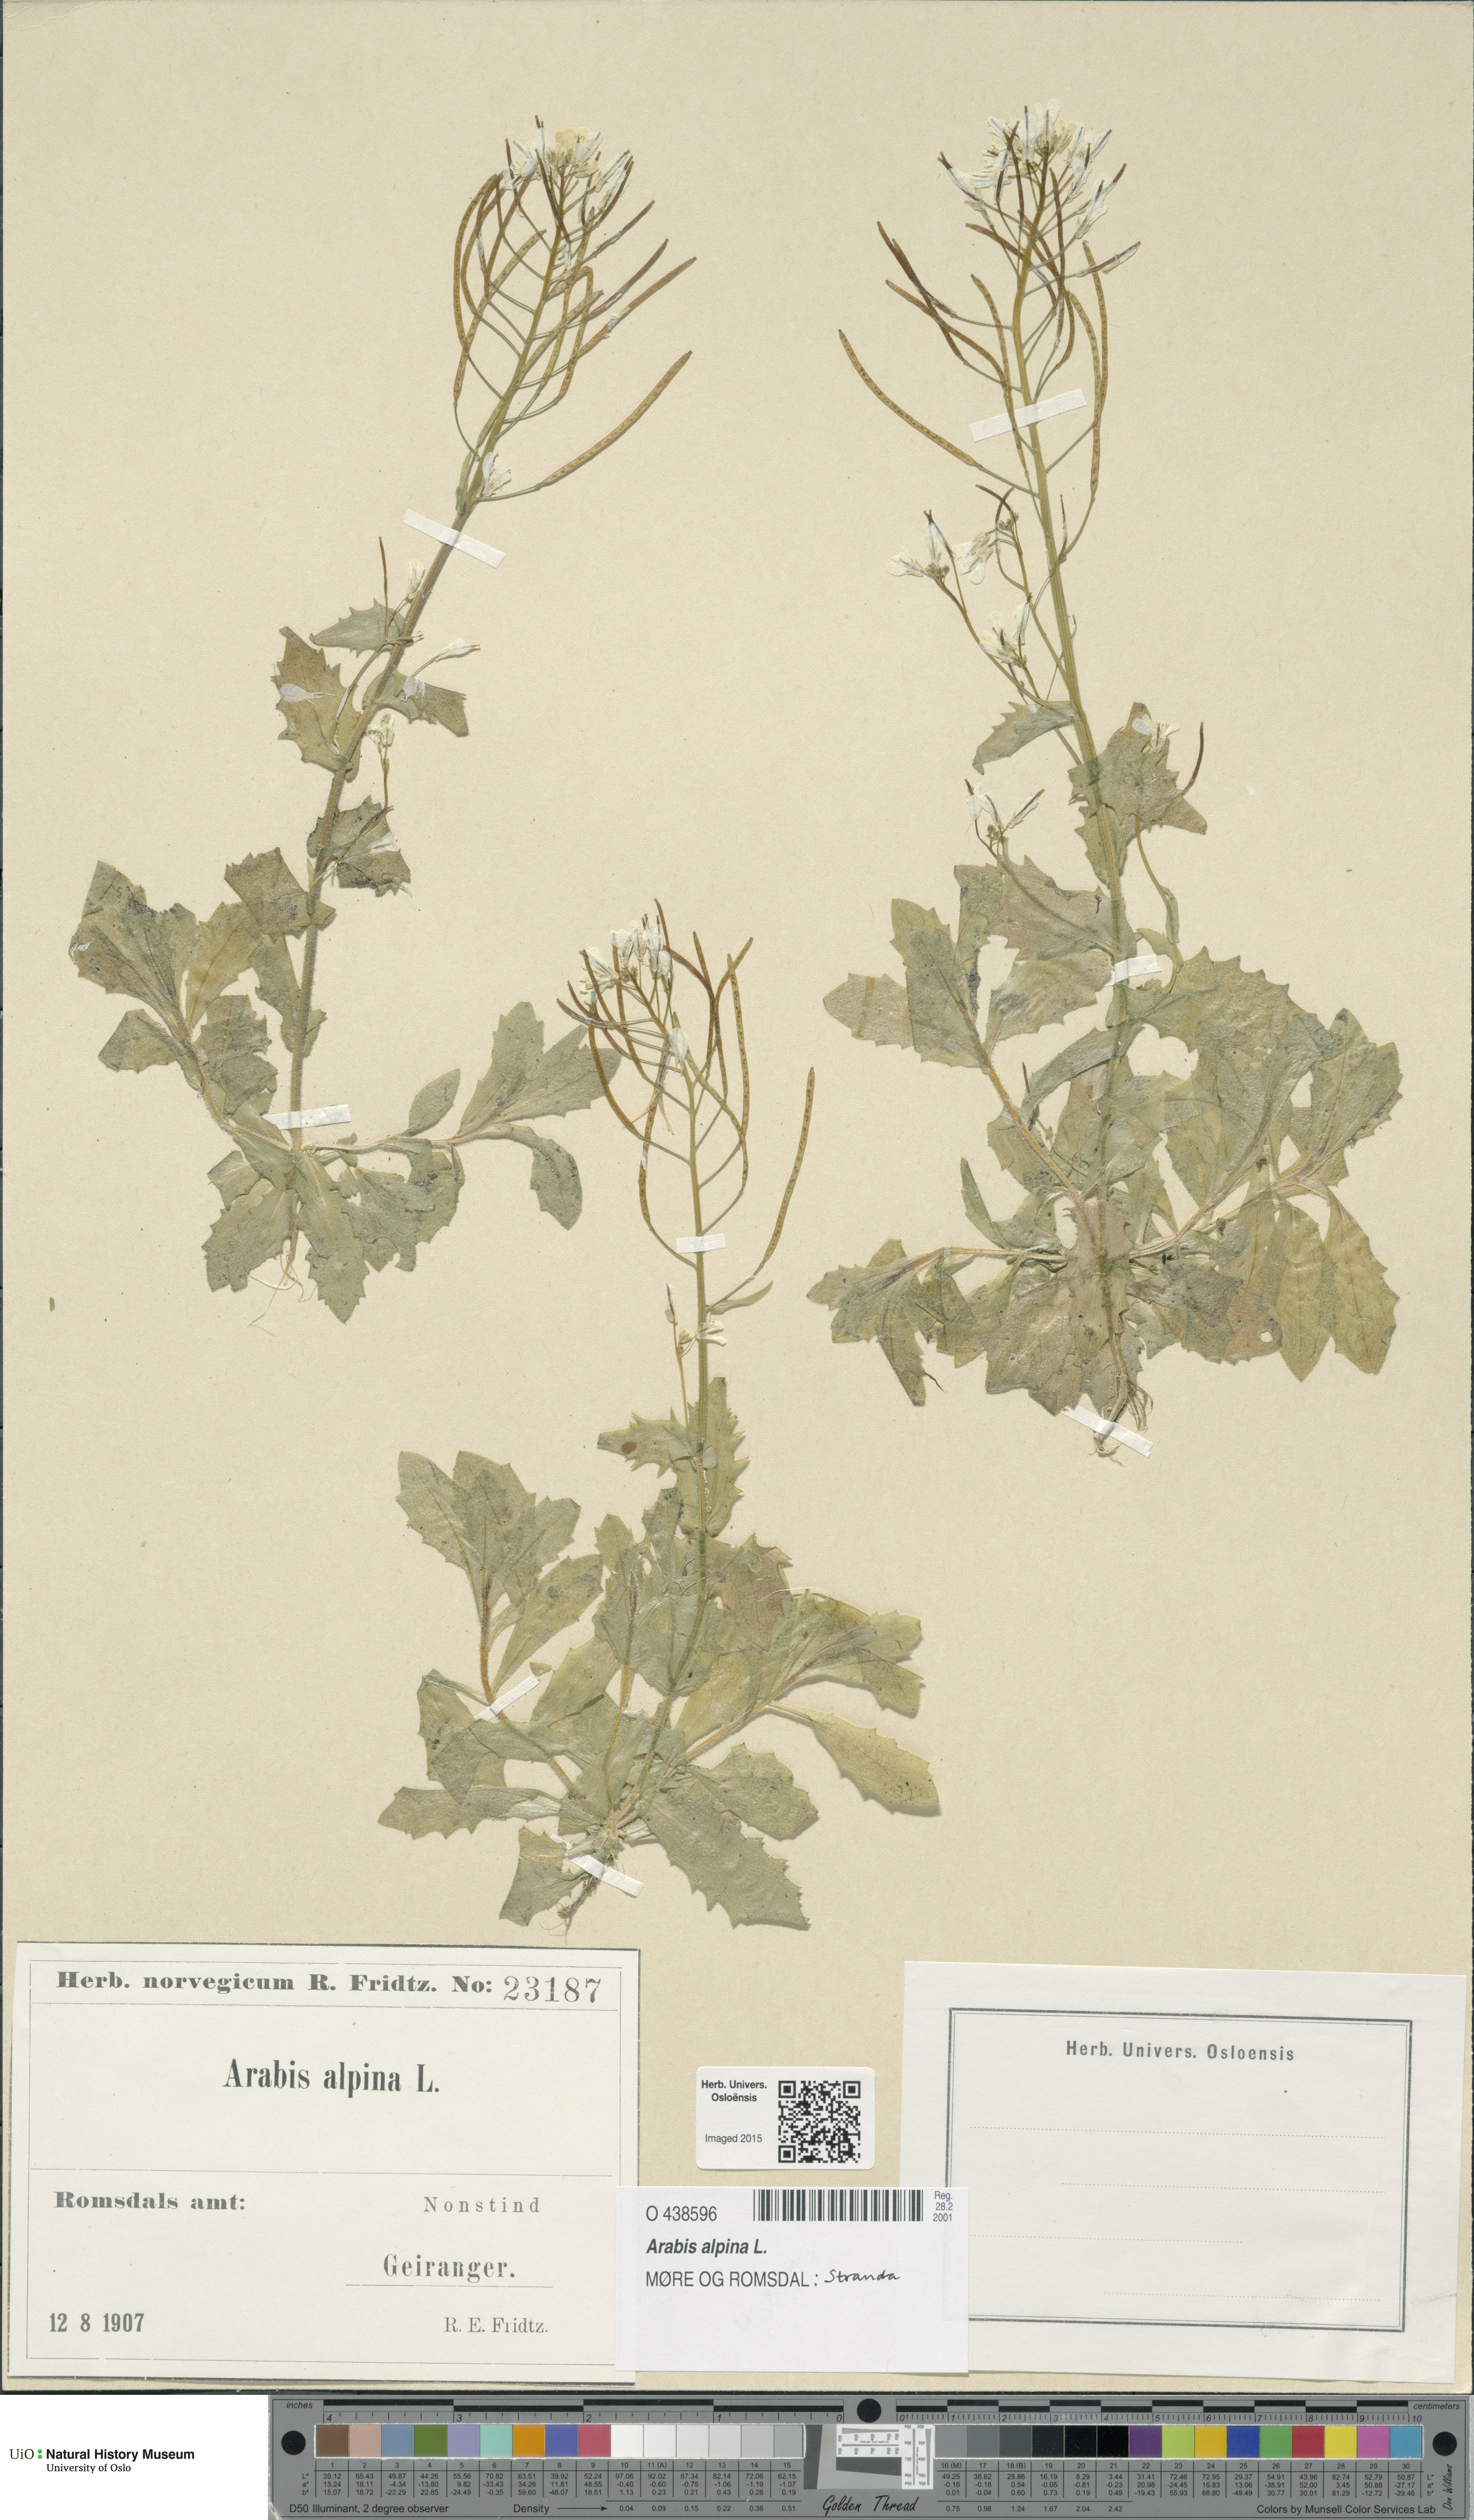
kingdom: Plantae
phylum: Tracheophyta
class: Magnoliopsida
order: Brassicales
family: Brassicaceae
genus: Arabis
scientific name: Arabis alpina
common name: Alpine rock-cress
